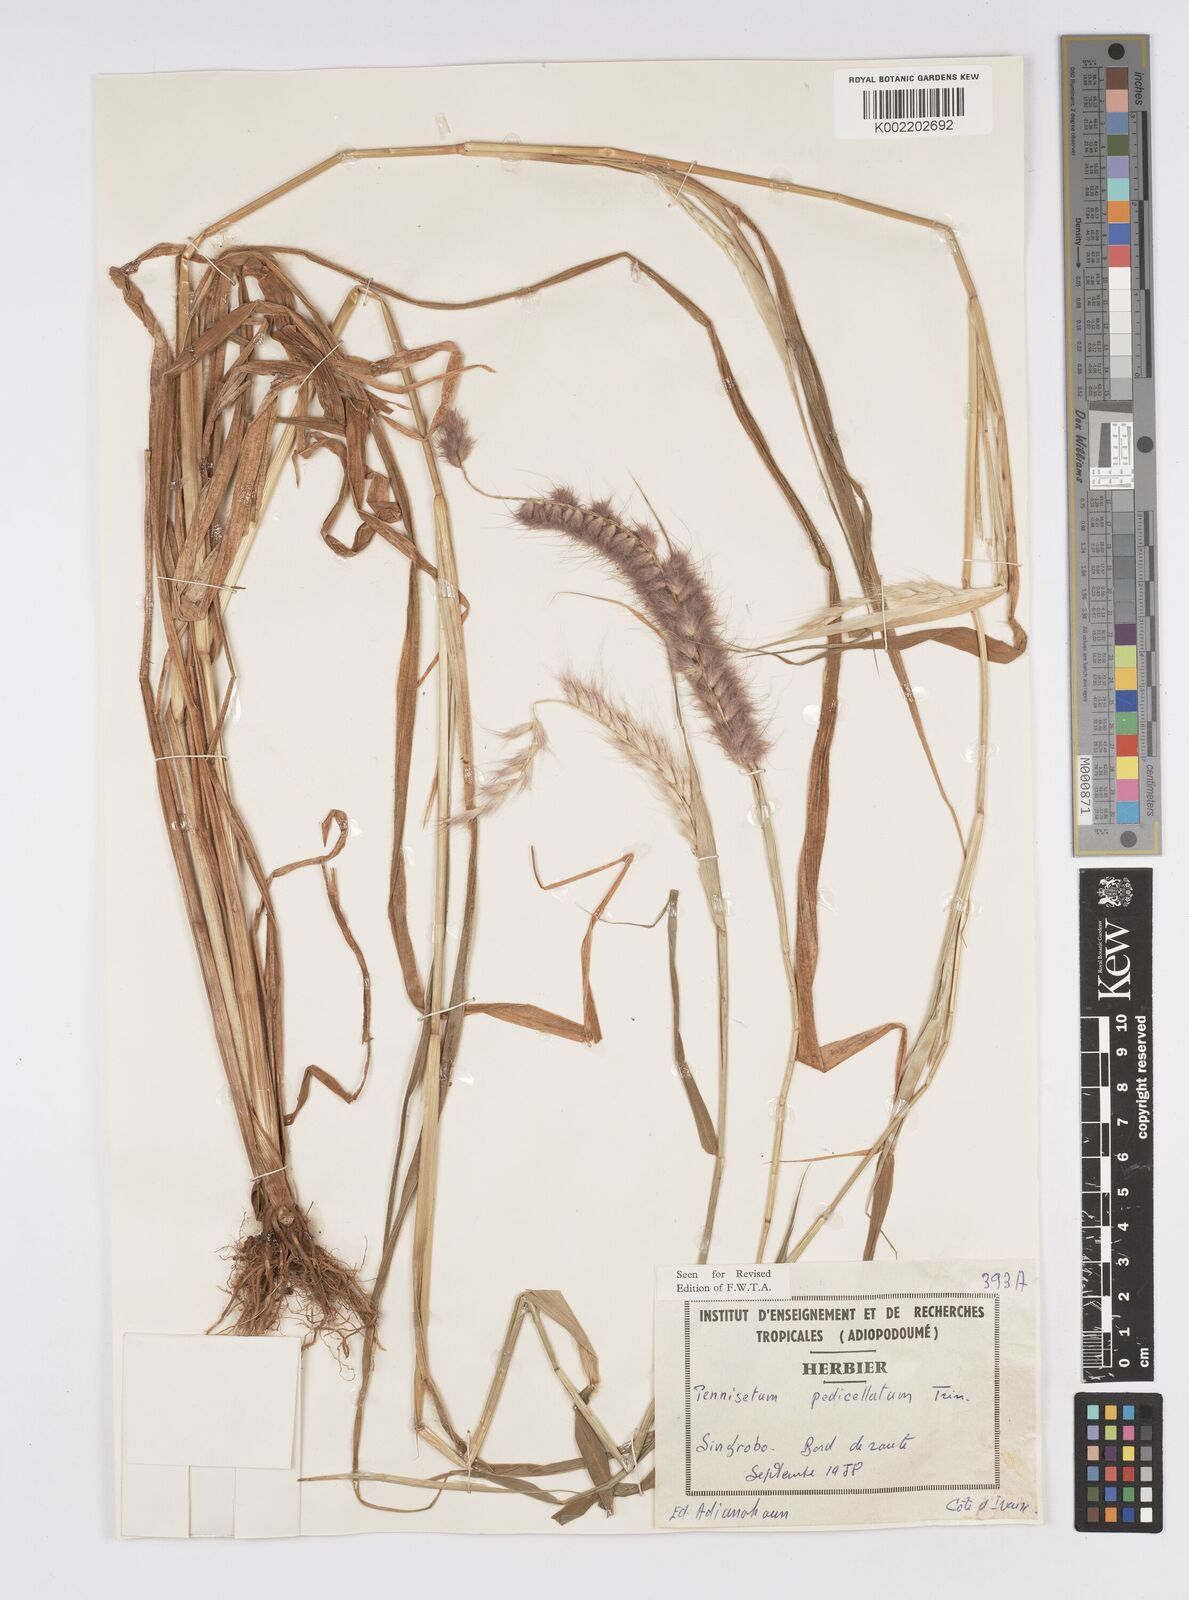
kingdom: Plantae
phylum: Tracheophyta
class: Liliopsida
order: Poales
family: Poaceae
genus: Cenchrus
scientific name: Cenchrus pedicellatus
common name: Hairy fountain grass
